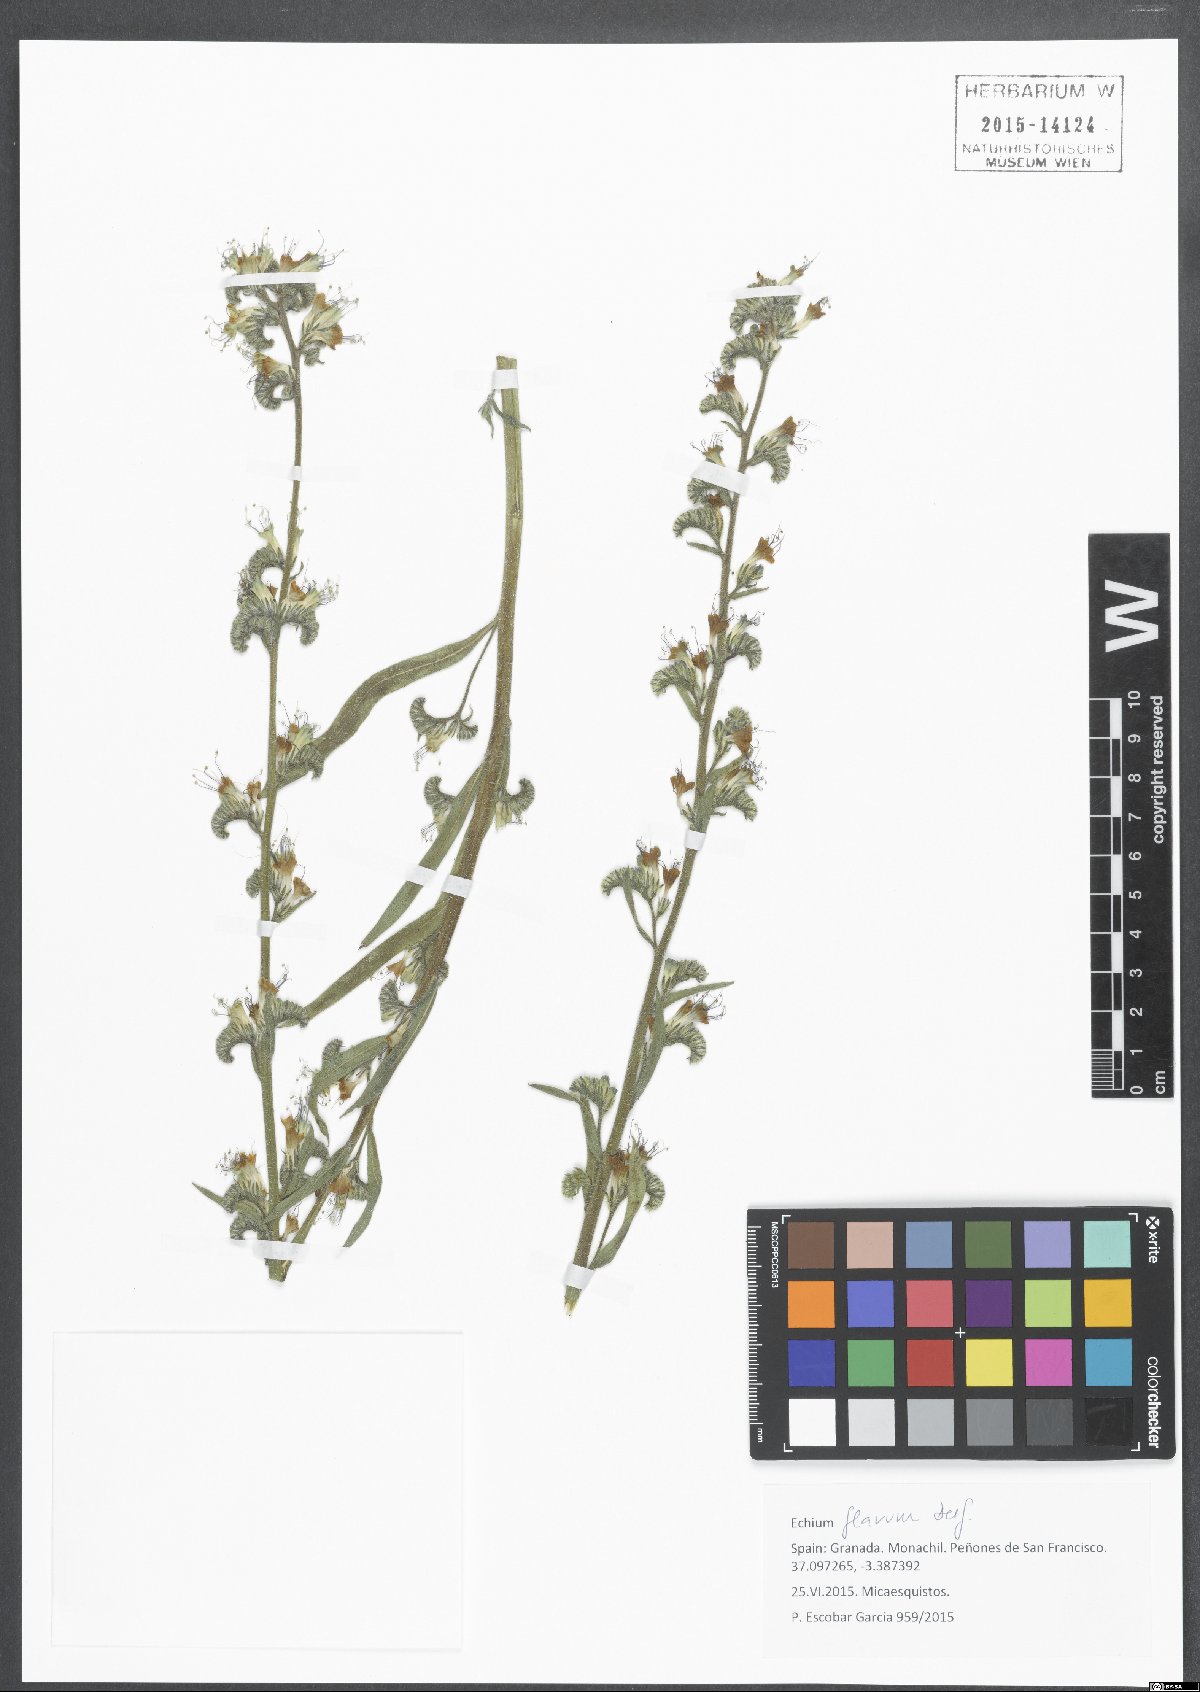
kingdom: Plantae
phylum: Tracheophyta
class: Magnoliopsida
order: Boraginales
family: Boraginaceae
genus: Echium
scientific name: Echium flavum
